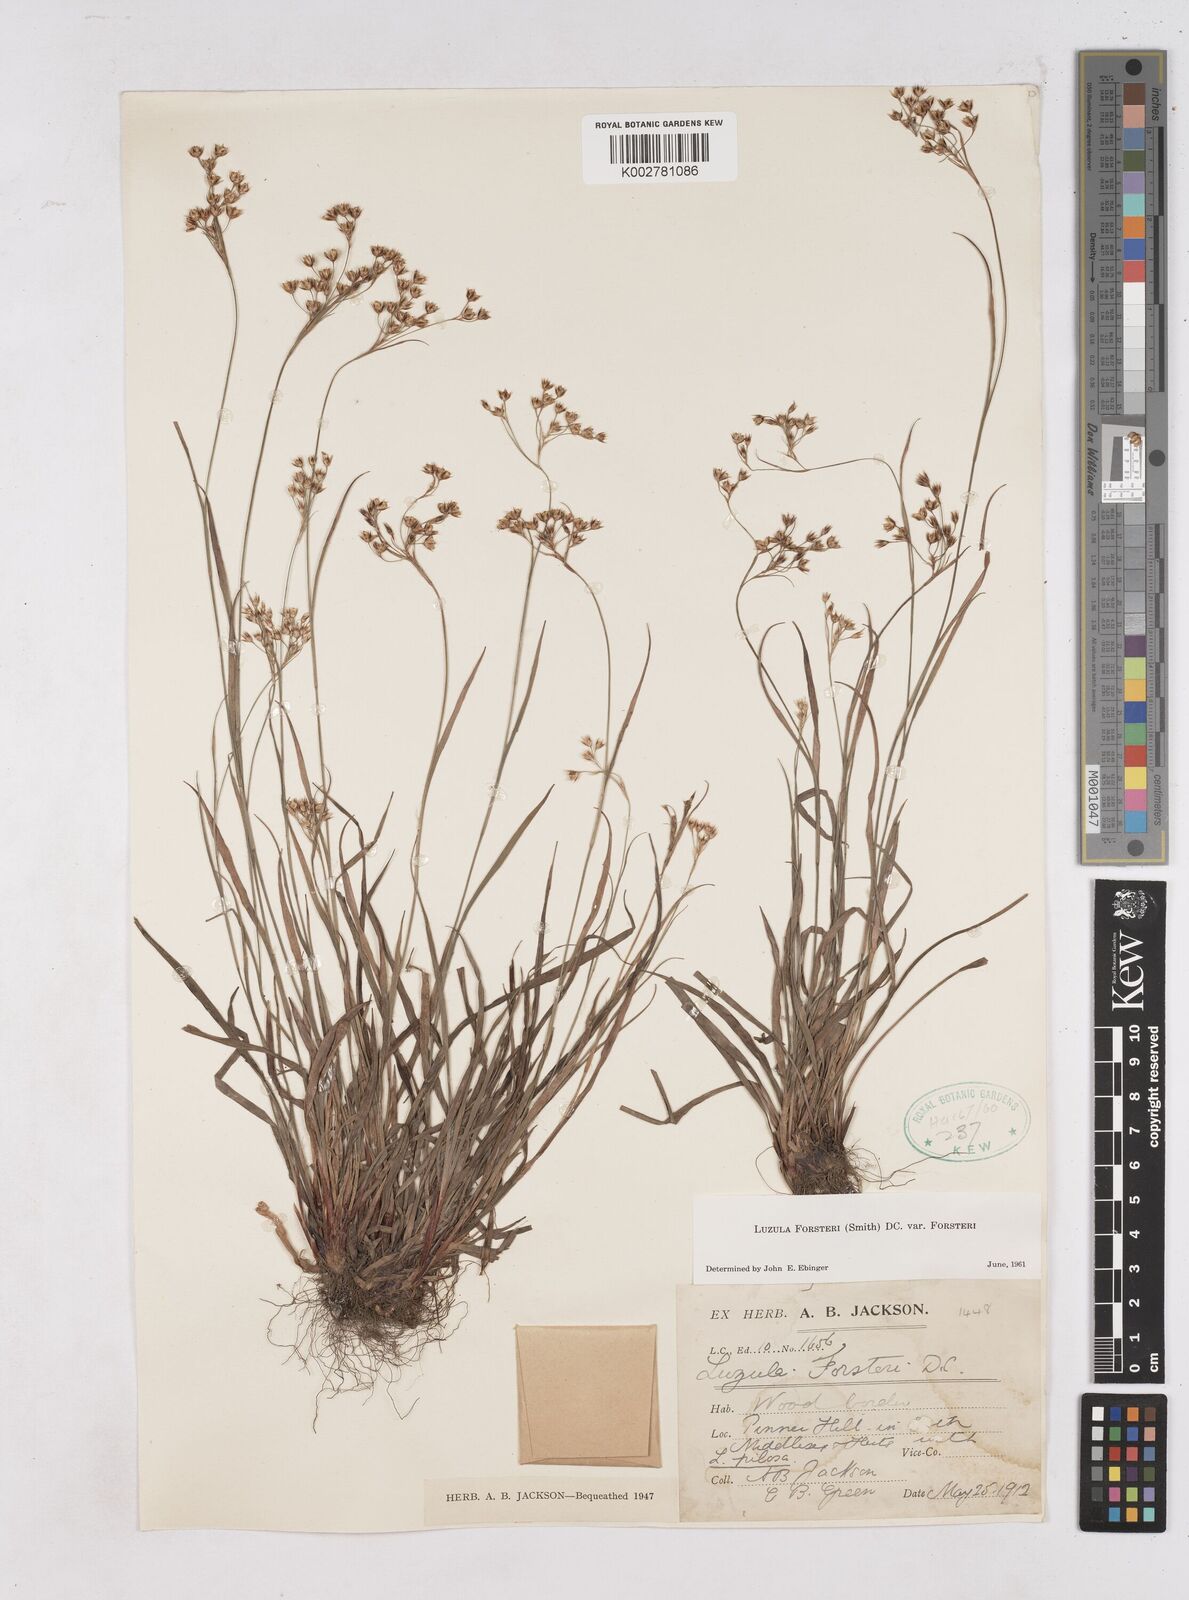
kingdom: Plantae
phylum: Tracheophyta
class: Liliopsida
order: Poales
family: Juncaceae
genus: Luzula
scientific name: Luzula forsteri
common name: Southern wood-rush
